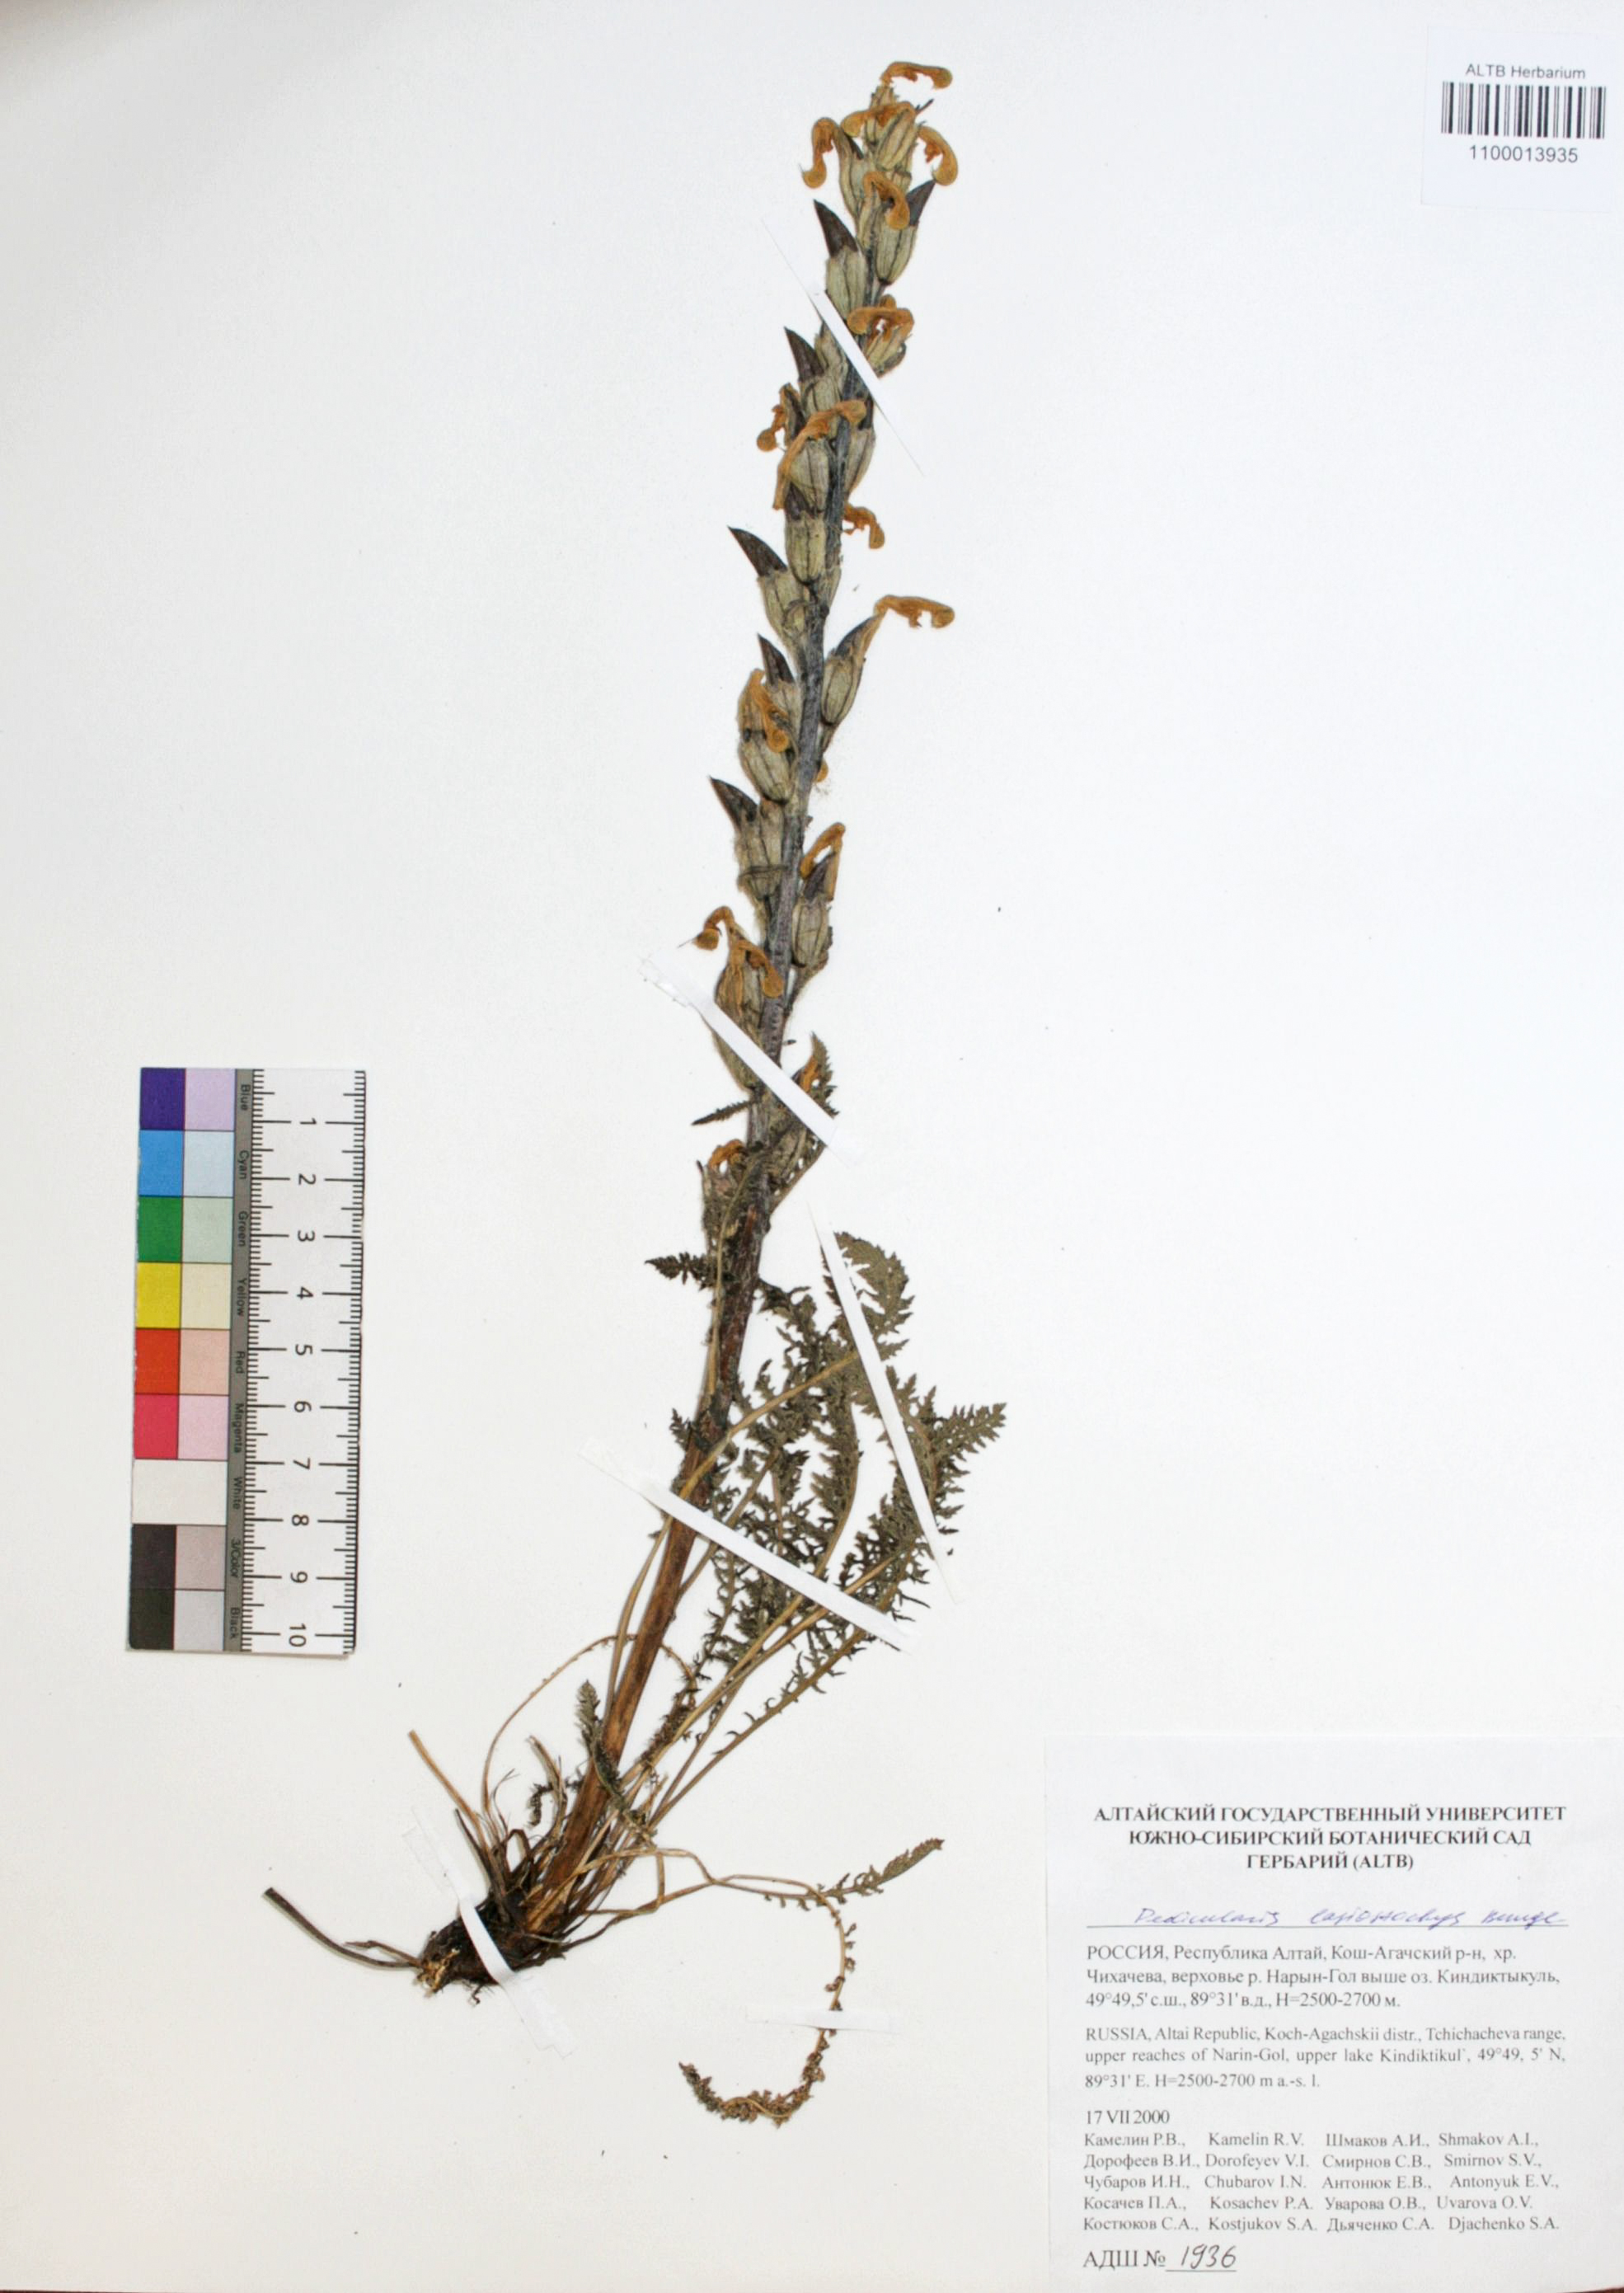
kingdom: Plantae
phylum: Tracheophyta
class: Magnoliopsida
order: Lamiales
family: Orobanchaceae
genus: Pedicularis
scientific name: Pedicularis lasiostachys
